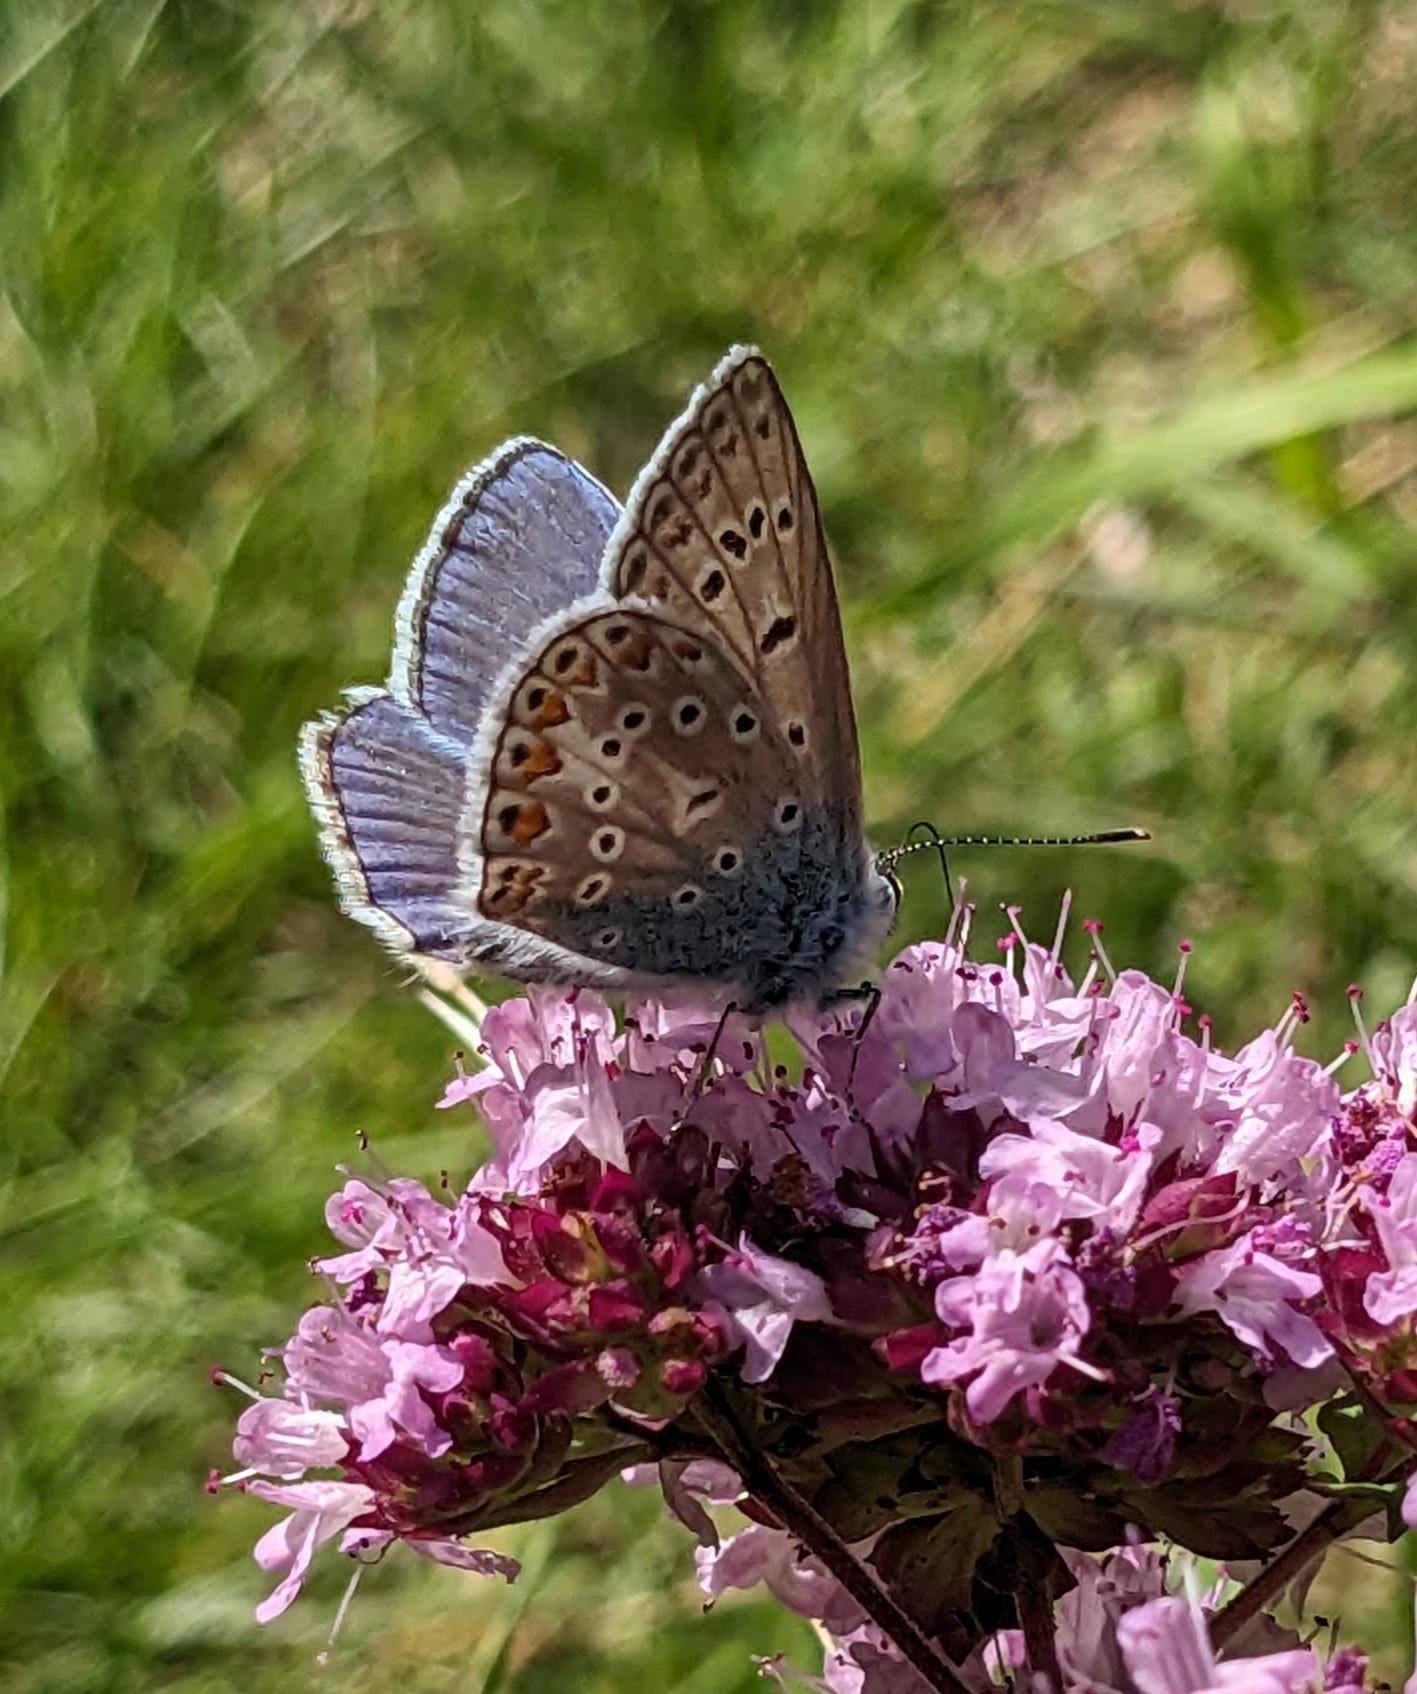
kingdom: Animalia
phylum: Arthropoda
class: Insecta
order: Lepidoptera
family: Lycaenidae
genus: Polyommatus
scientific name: Polyommatus icarus
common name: Almindelig blåfugl
